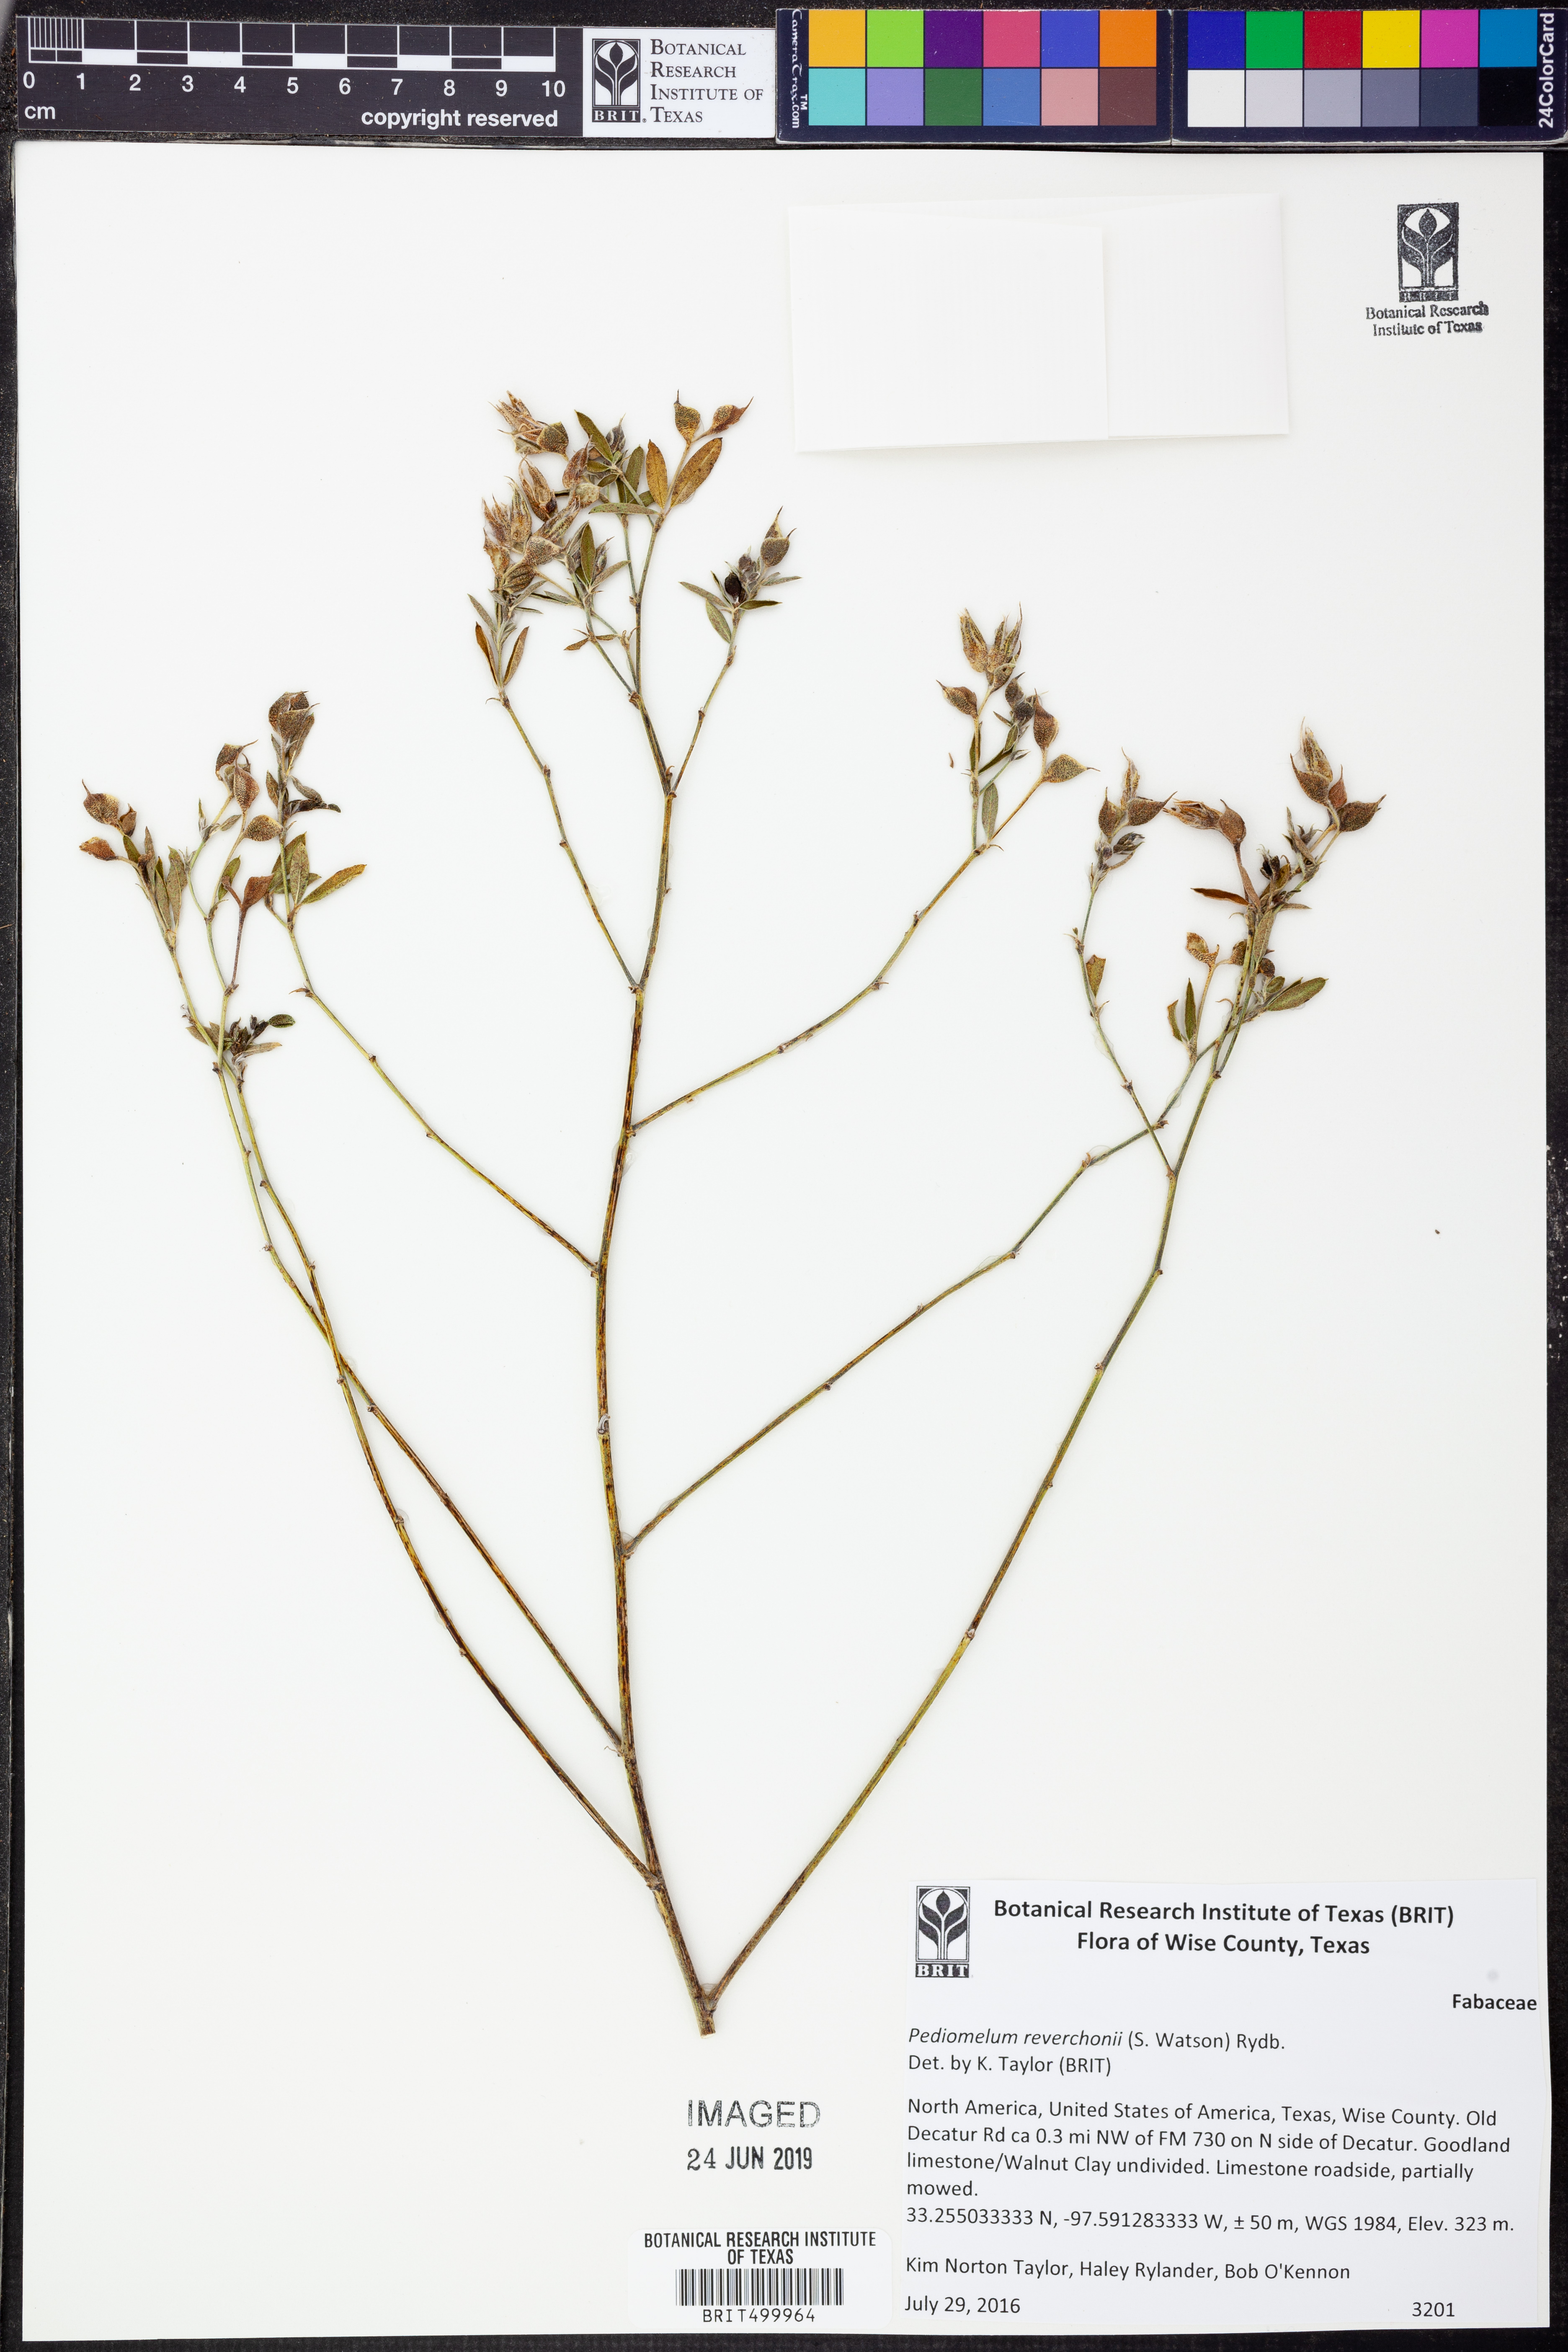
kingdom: Plantae
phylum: Tracheophyta
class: Magnoliopsida
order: Fabales
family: Fabaceae
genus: Pediomelum
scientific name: Pediomelum reverchonii
